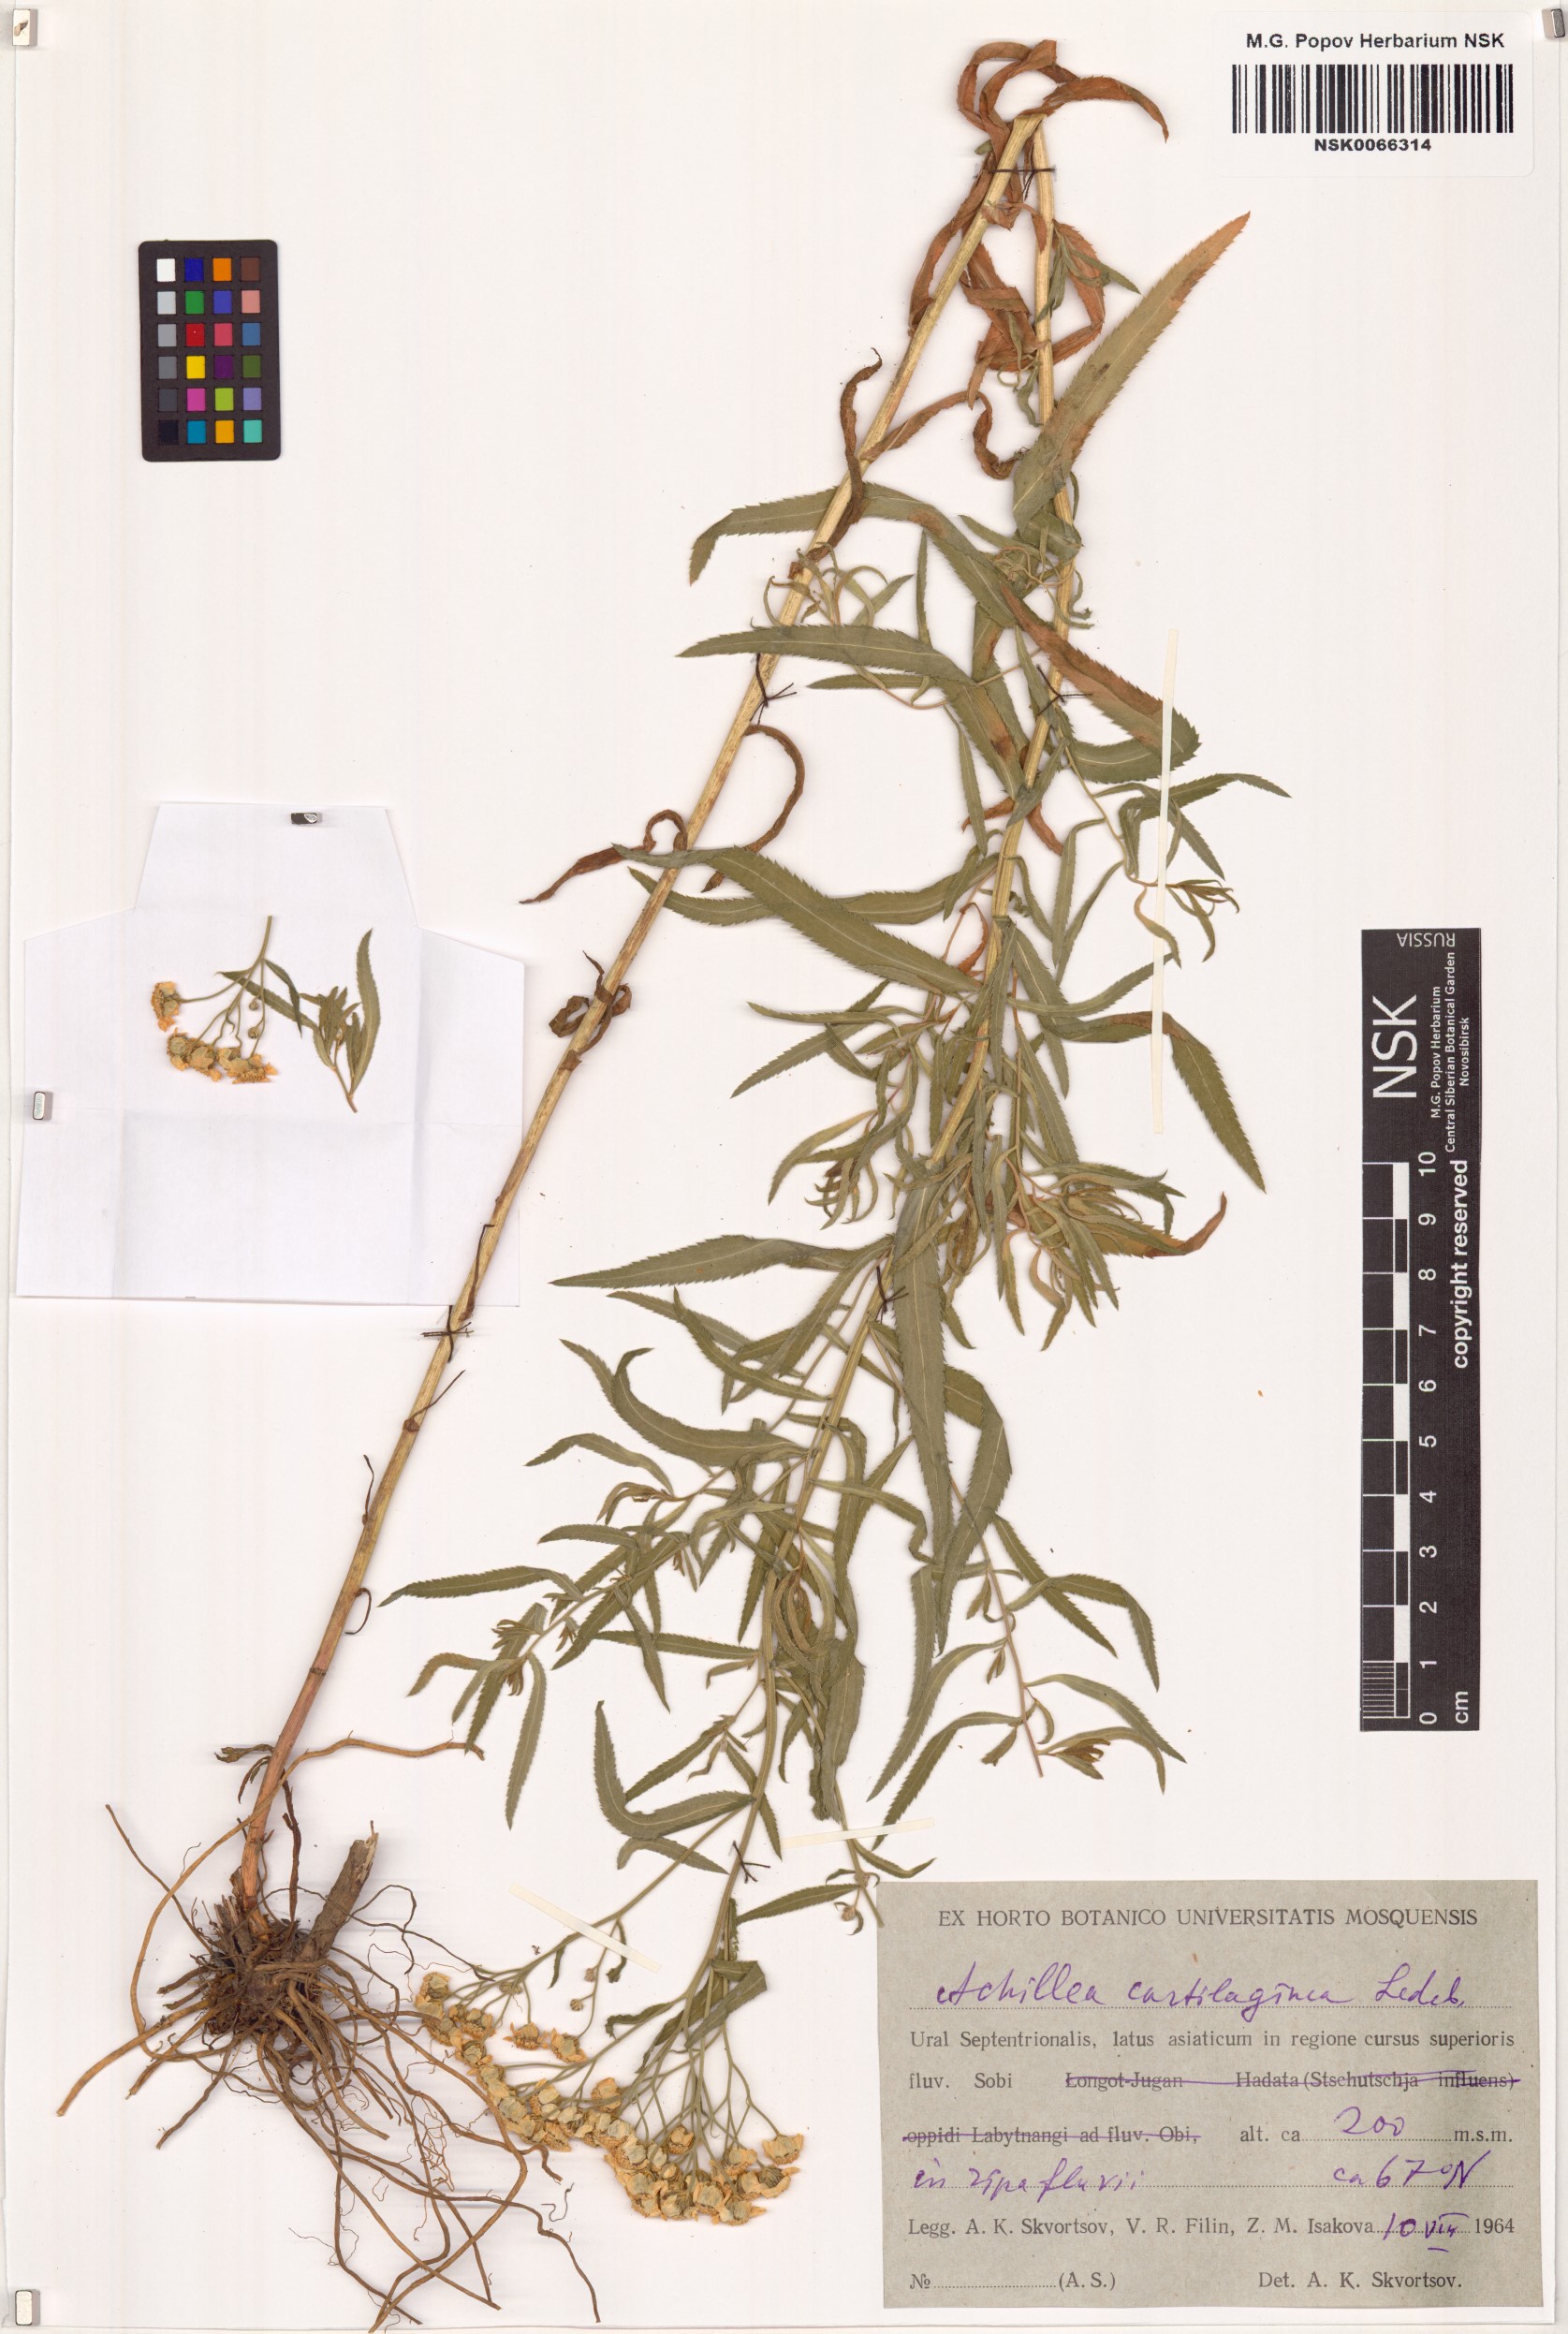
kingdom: Plantae
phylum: Tracheophyta
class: Magnoliopsida
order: Asterales
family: Asteraceae
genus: Achillea
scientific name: Achillea salicifolia
